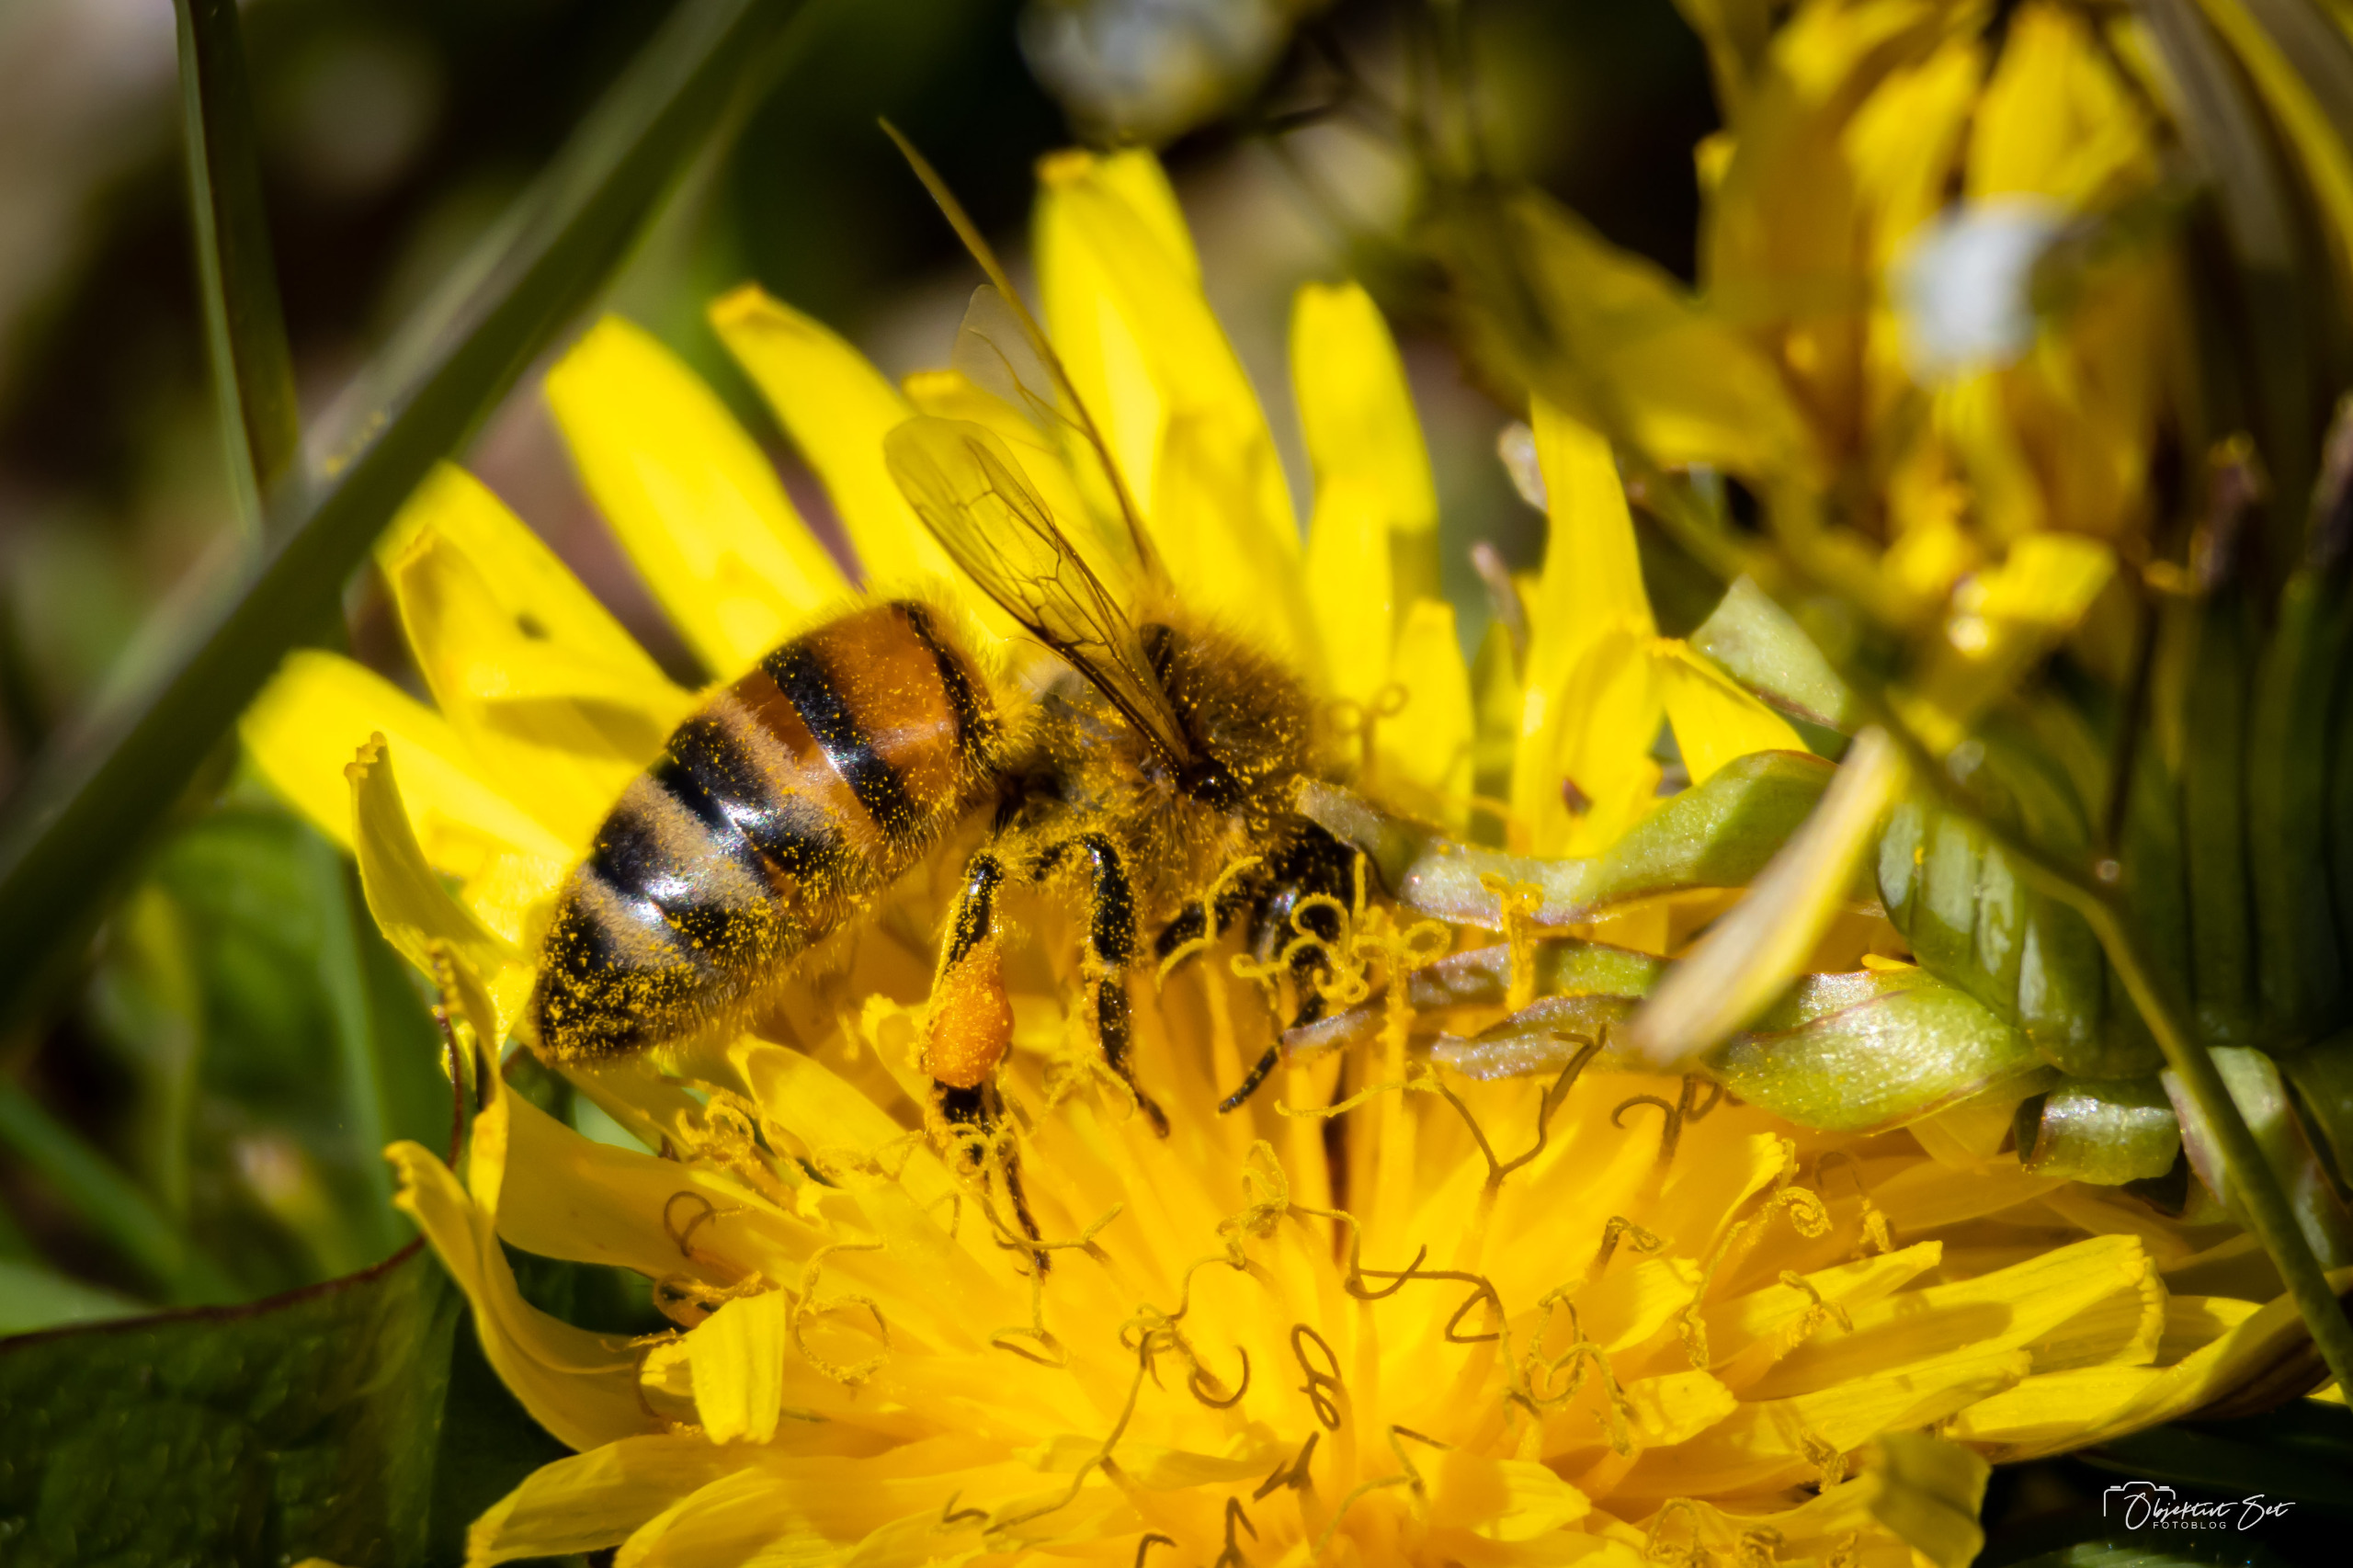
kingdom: Animalia
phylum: Arthropoda
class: Insecta
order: Hymenoptera
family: Apidae
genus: Apis
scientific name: Apis mellifera
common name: Honningbi
